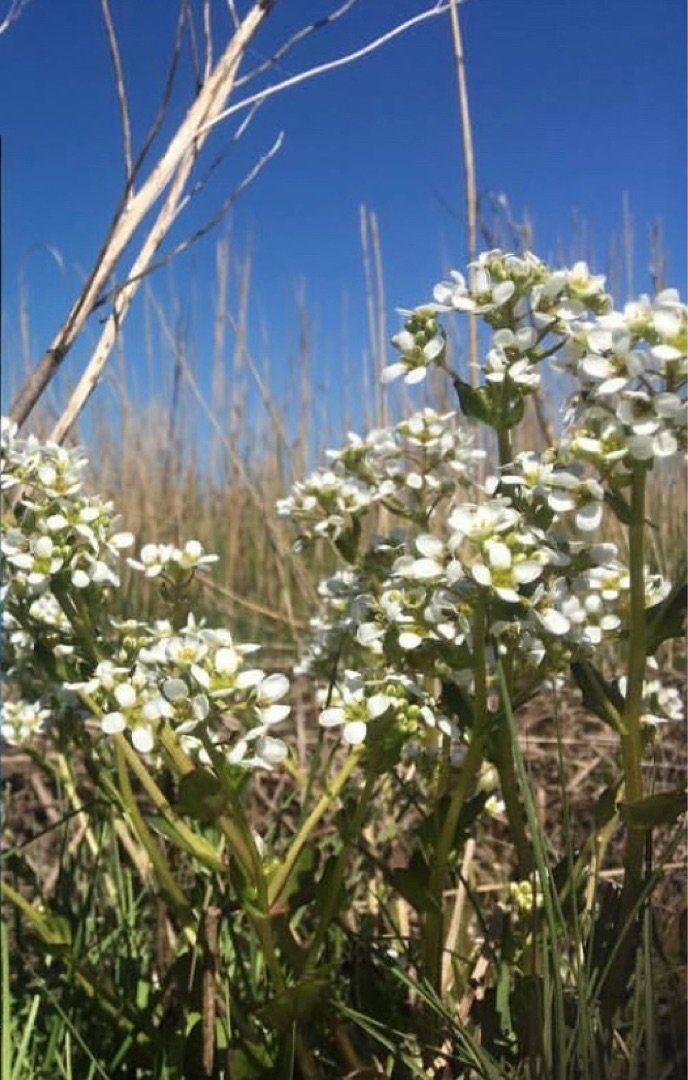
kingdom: Plantae
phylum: Tracheophyta
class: Magnoliopsida
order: Brassicales
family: Brassicaceae
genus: Cochlearia
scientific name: Cochlearia officinalis
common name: Læge-kokleare
